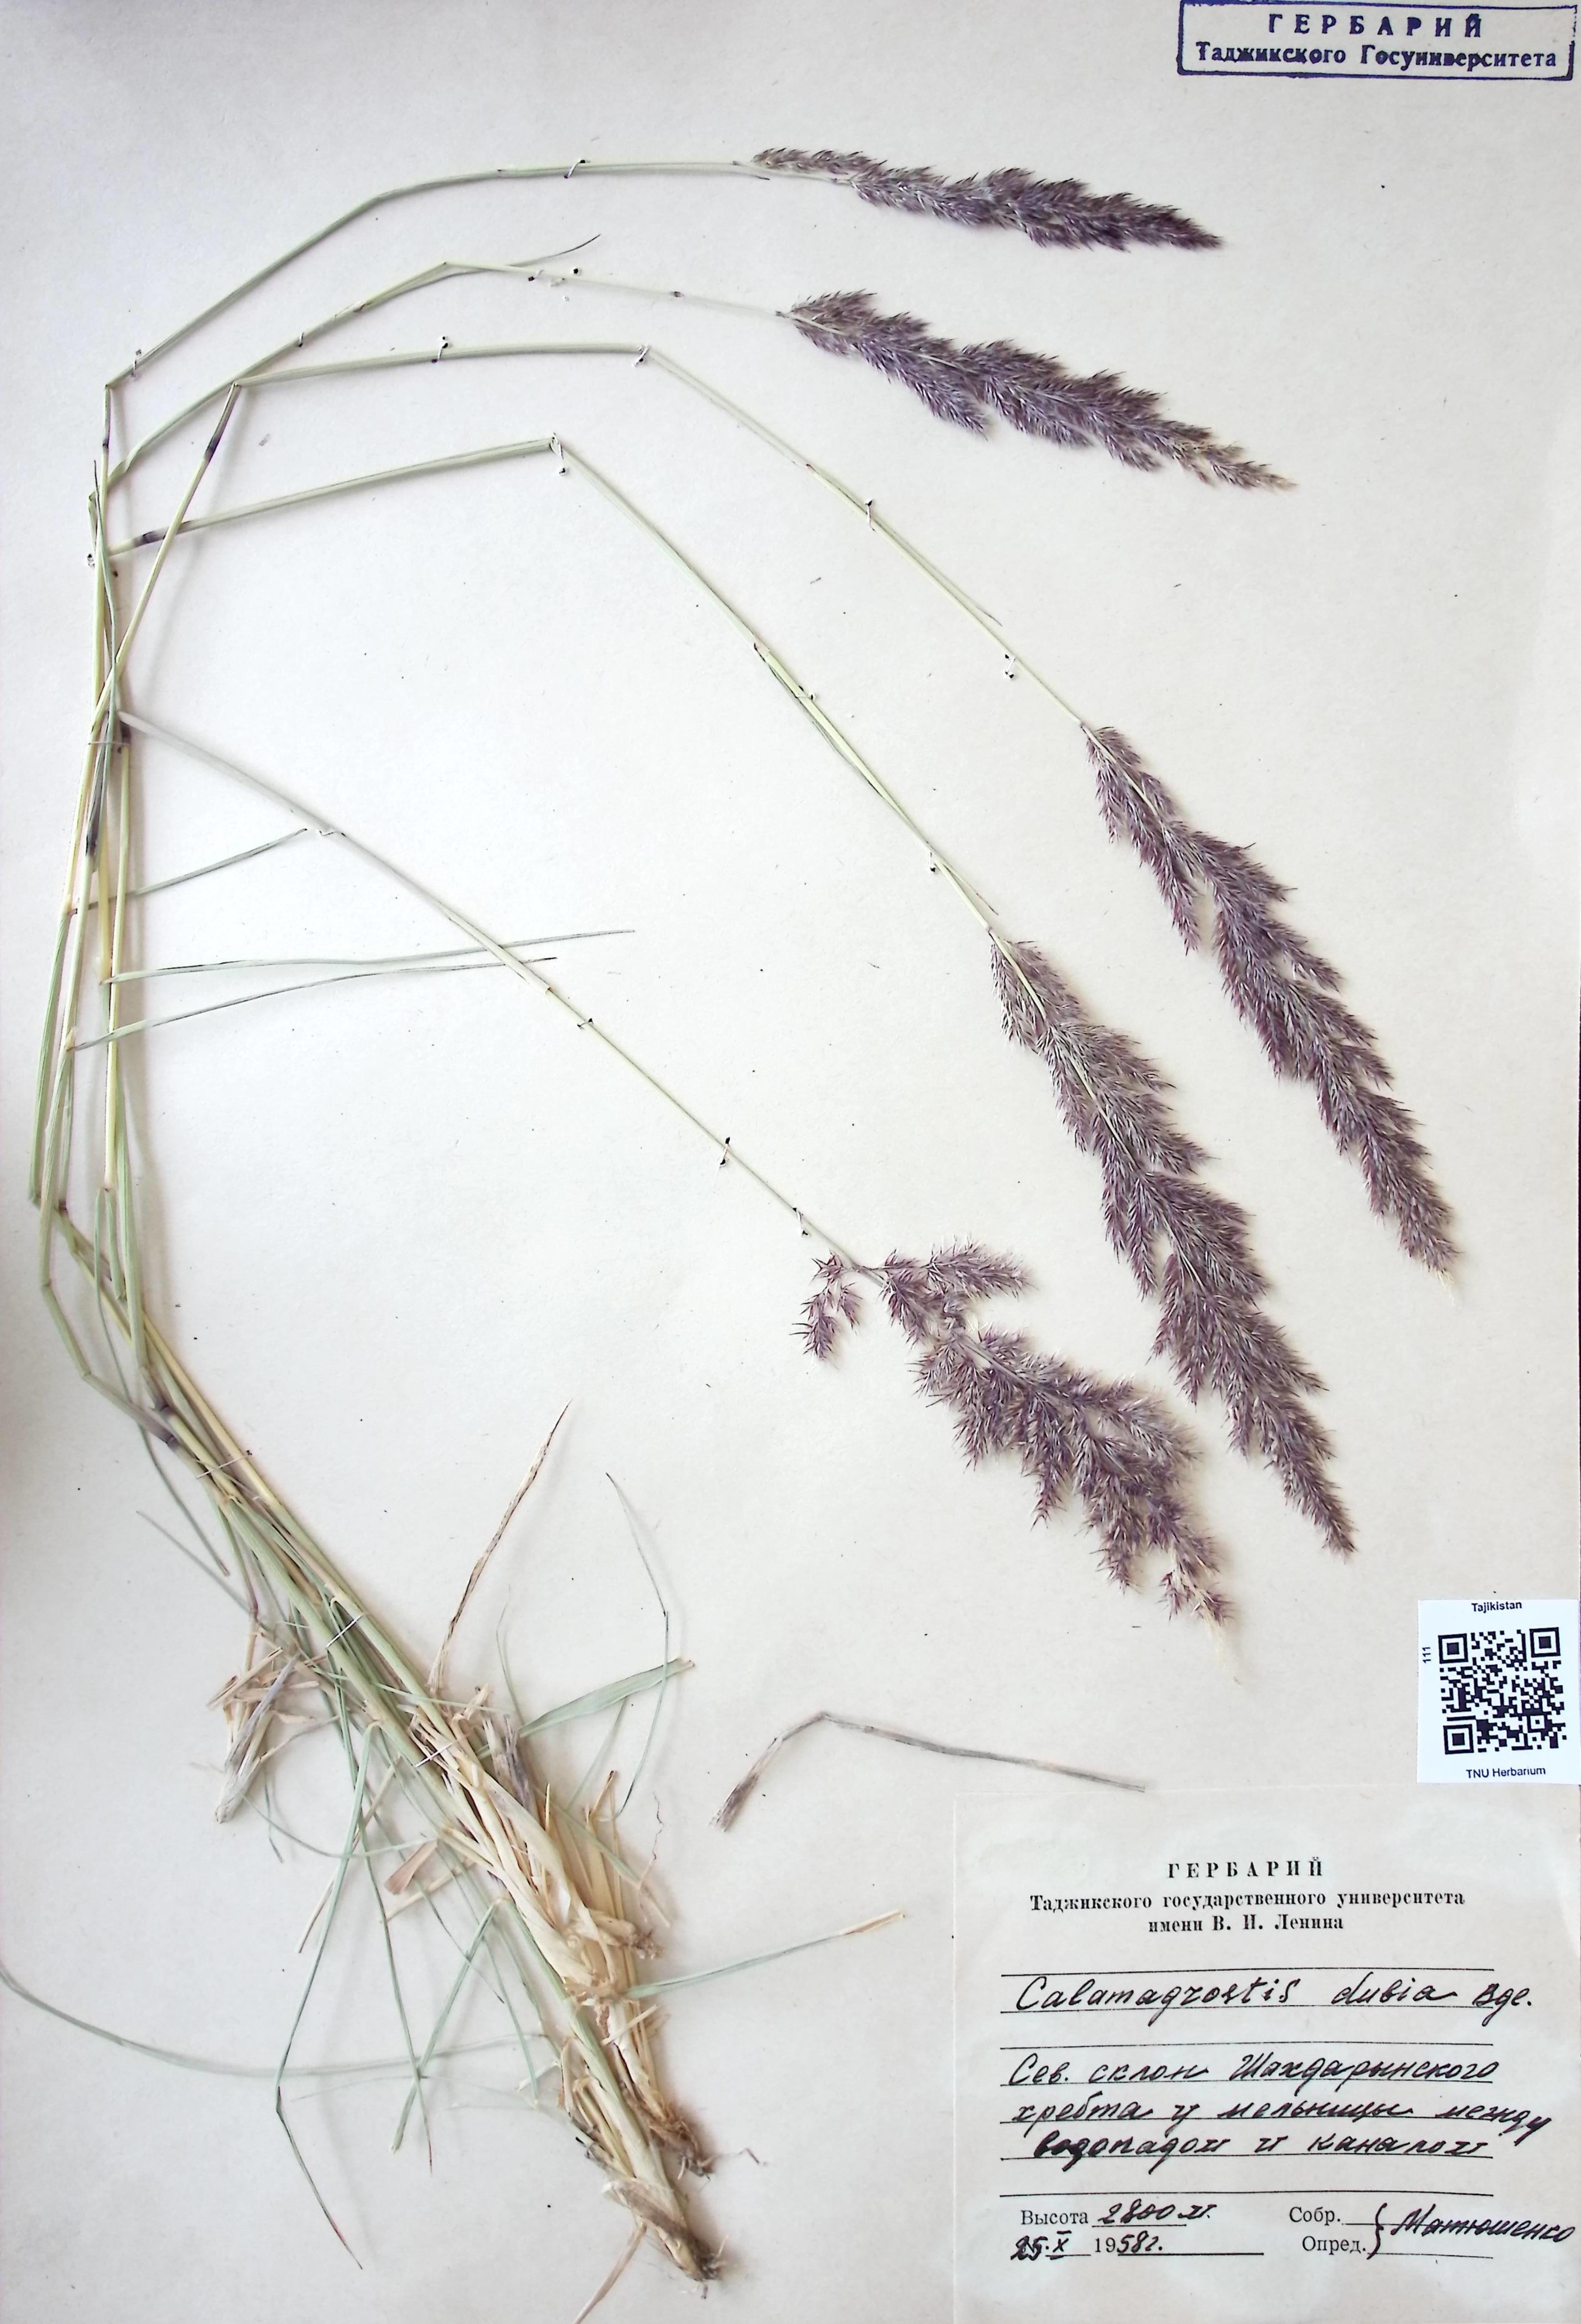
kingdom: Plantae
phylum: Tracheophyta
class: Liliopsida
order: Poales
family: Poaceae
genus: Calamagrostis
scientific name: Calamagrostis pseudophragmites
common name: Coastal small-reed
